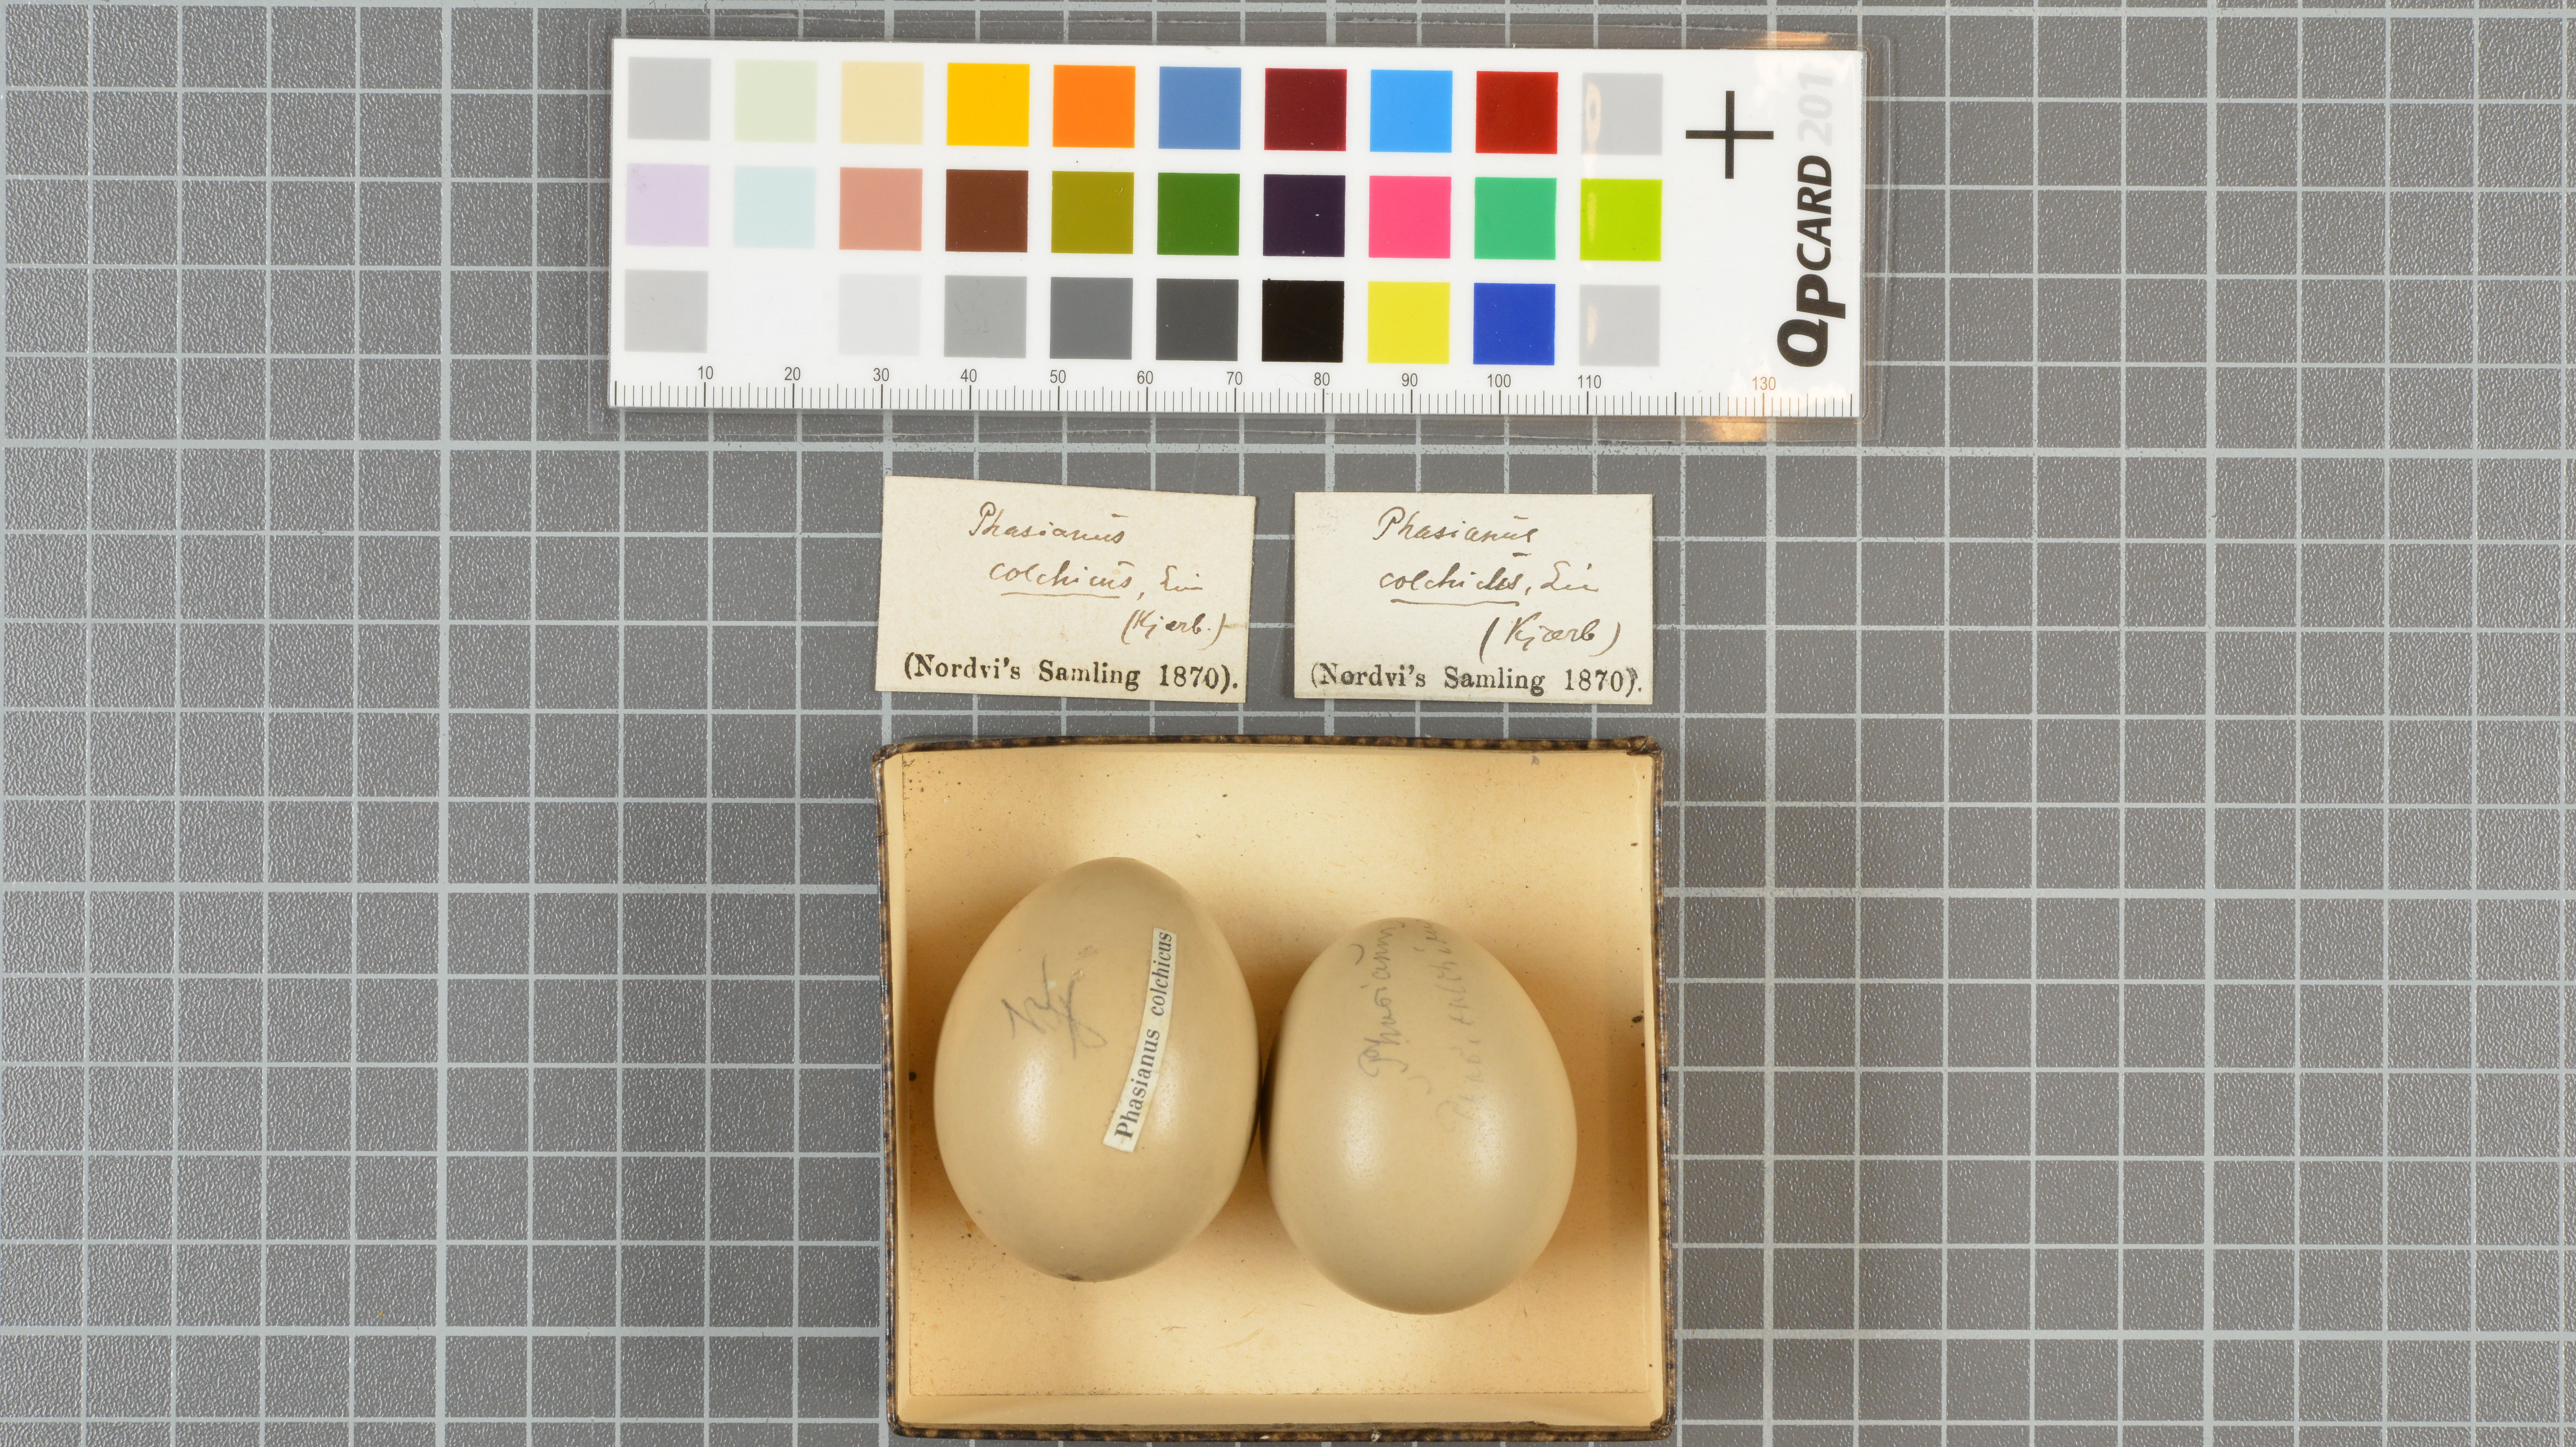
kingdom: Animalia
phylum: Chordata
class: Aves
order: Galliformes
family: Phasianidae
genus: Phasianus
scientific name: Phasianus colchicus
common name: Common pheasant
